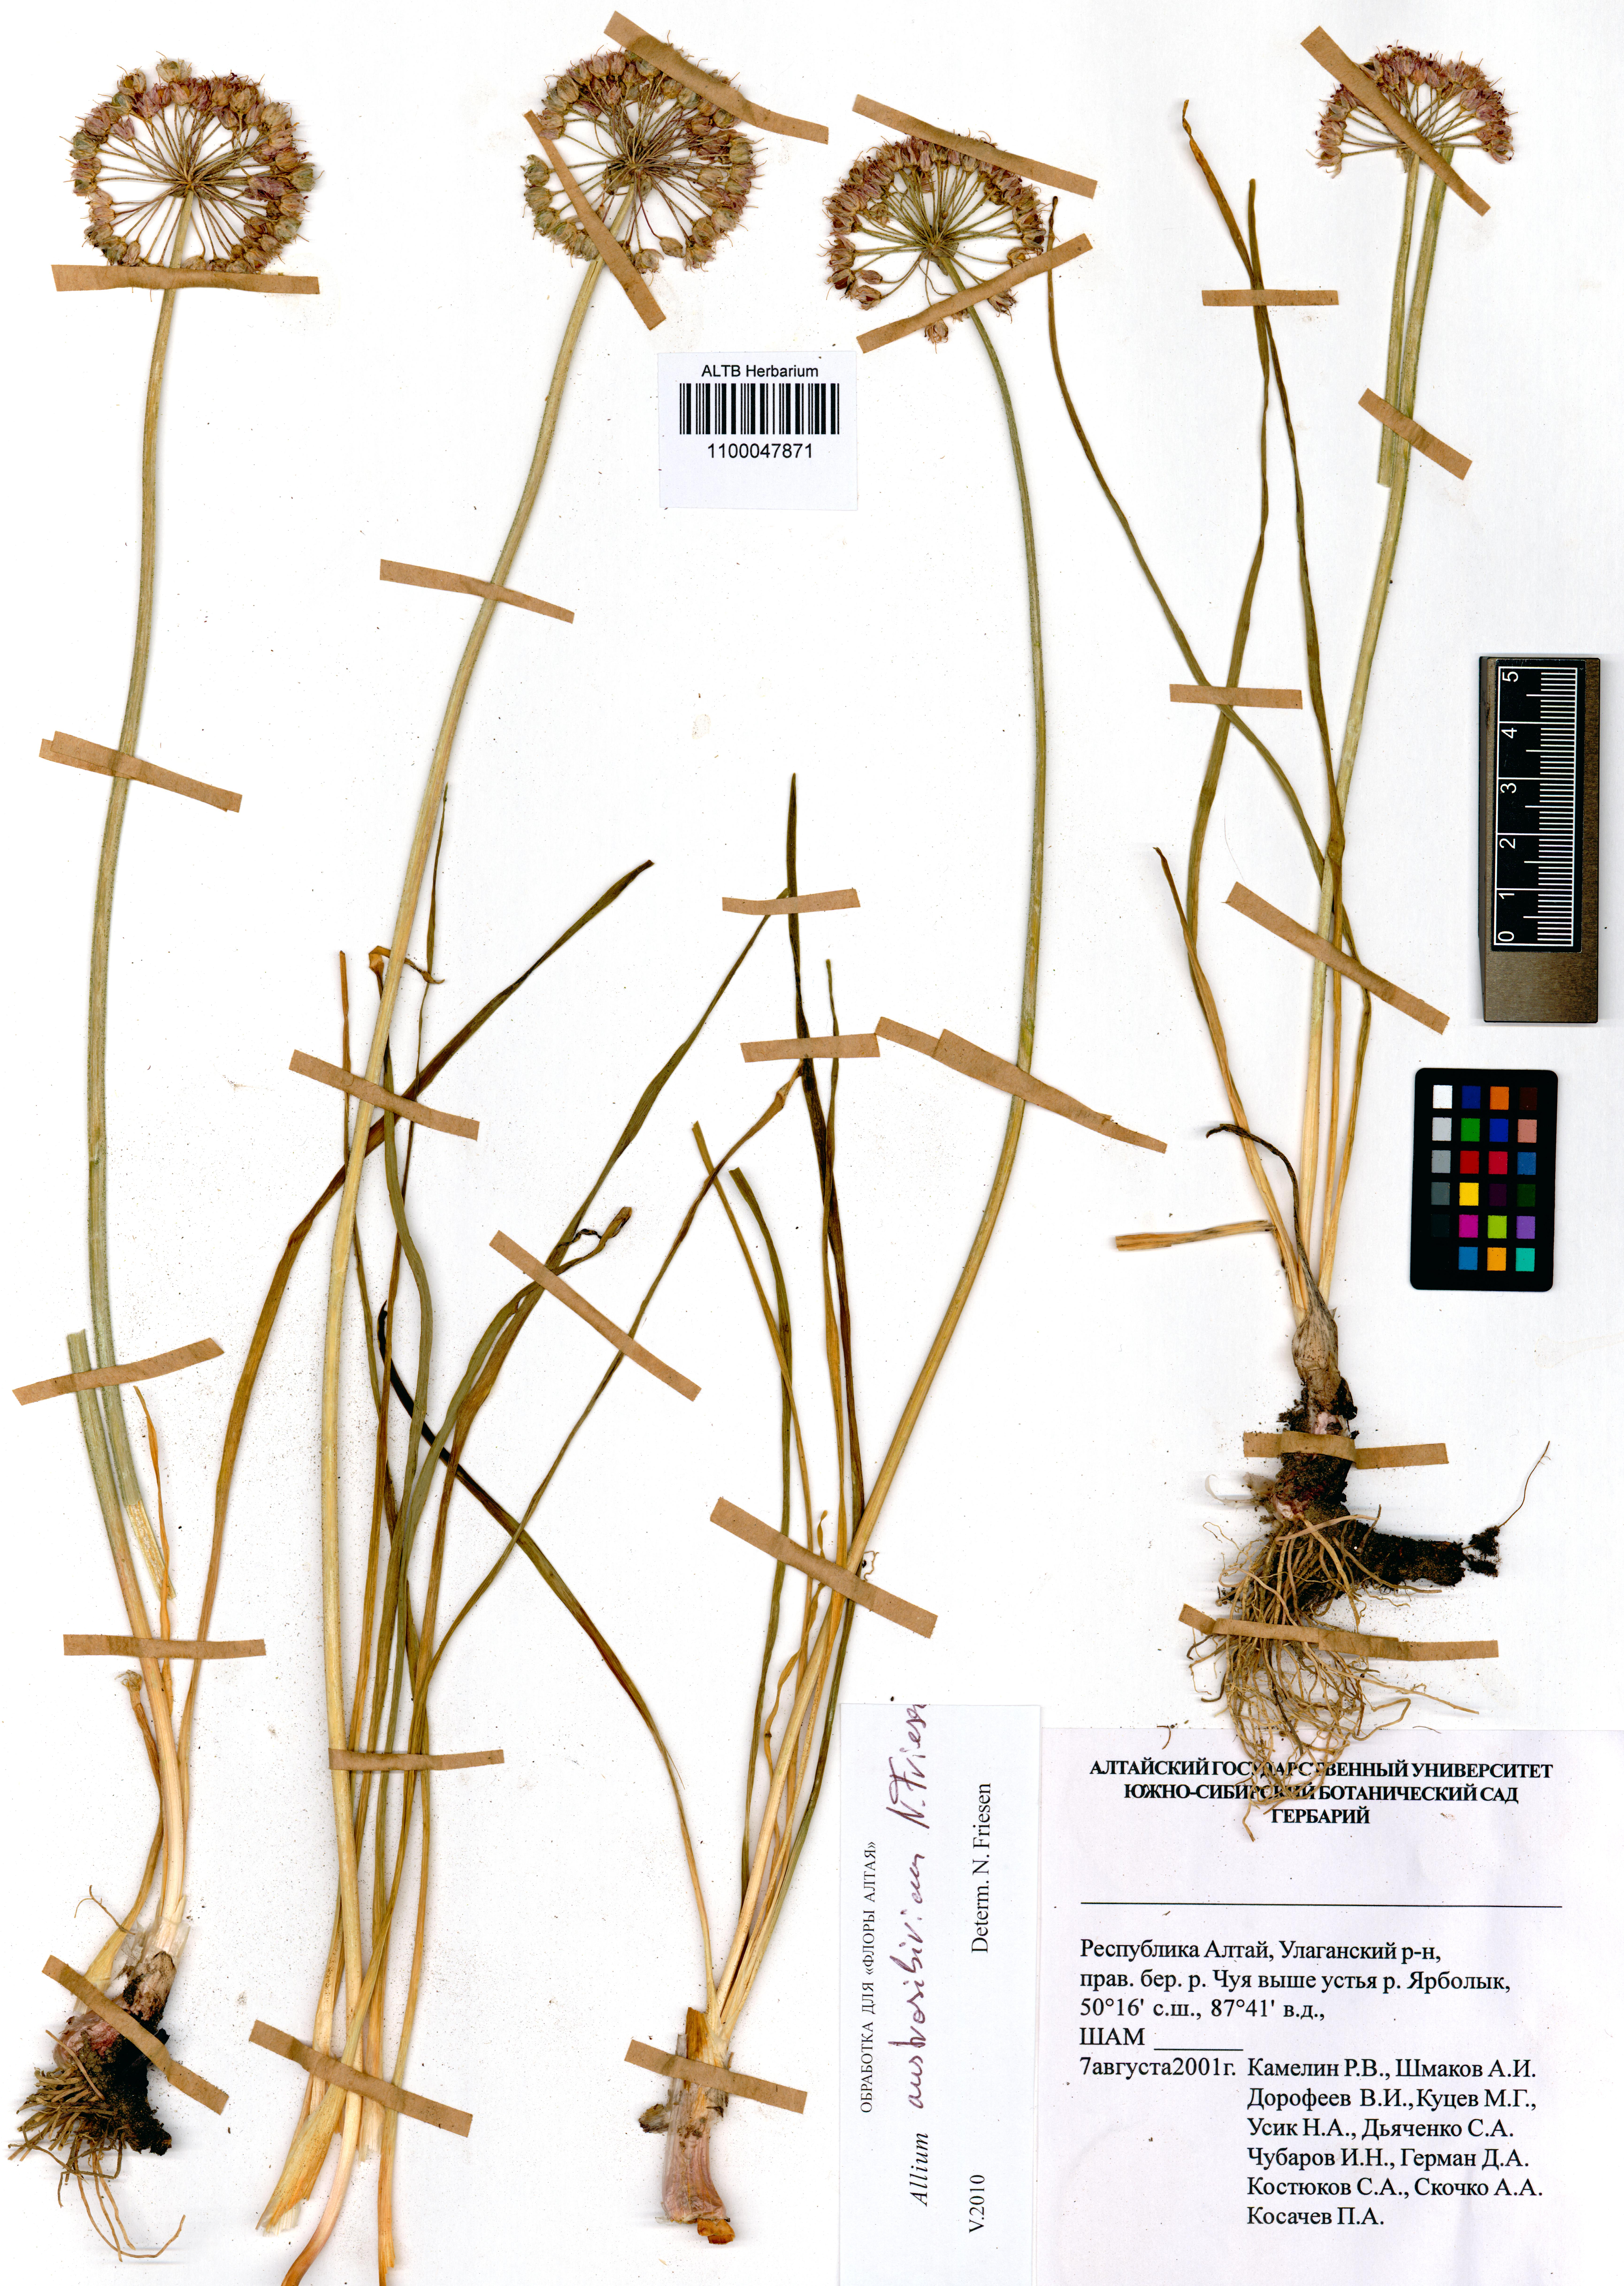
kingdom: Plantae
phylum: Tracheophyta
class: Liliopsida
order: Asparagales
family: Amaryllidaceae
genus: Allium
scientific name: Allium austrosibiricum
